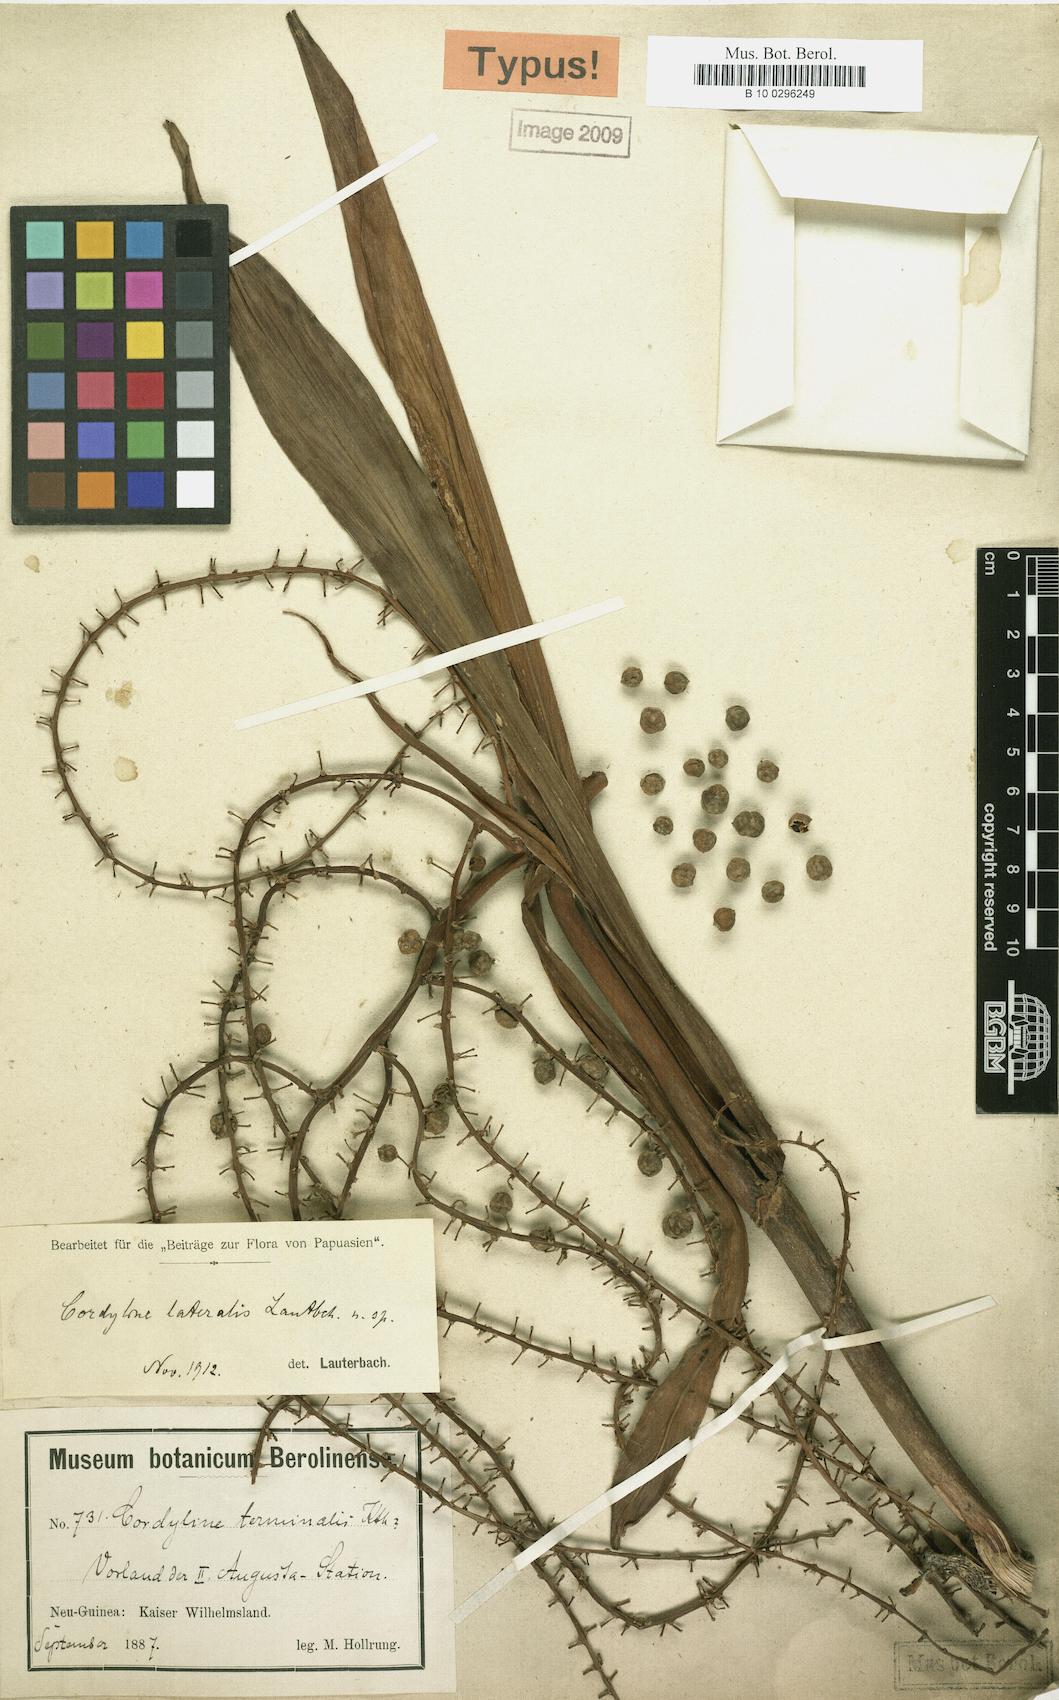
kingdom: Plantae
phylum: Tracheophyta
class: Liliopsida
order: Asparagales
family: Asparagaceae
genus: Cordyline
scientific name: Cordyline lateralis
